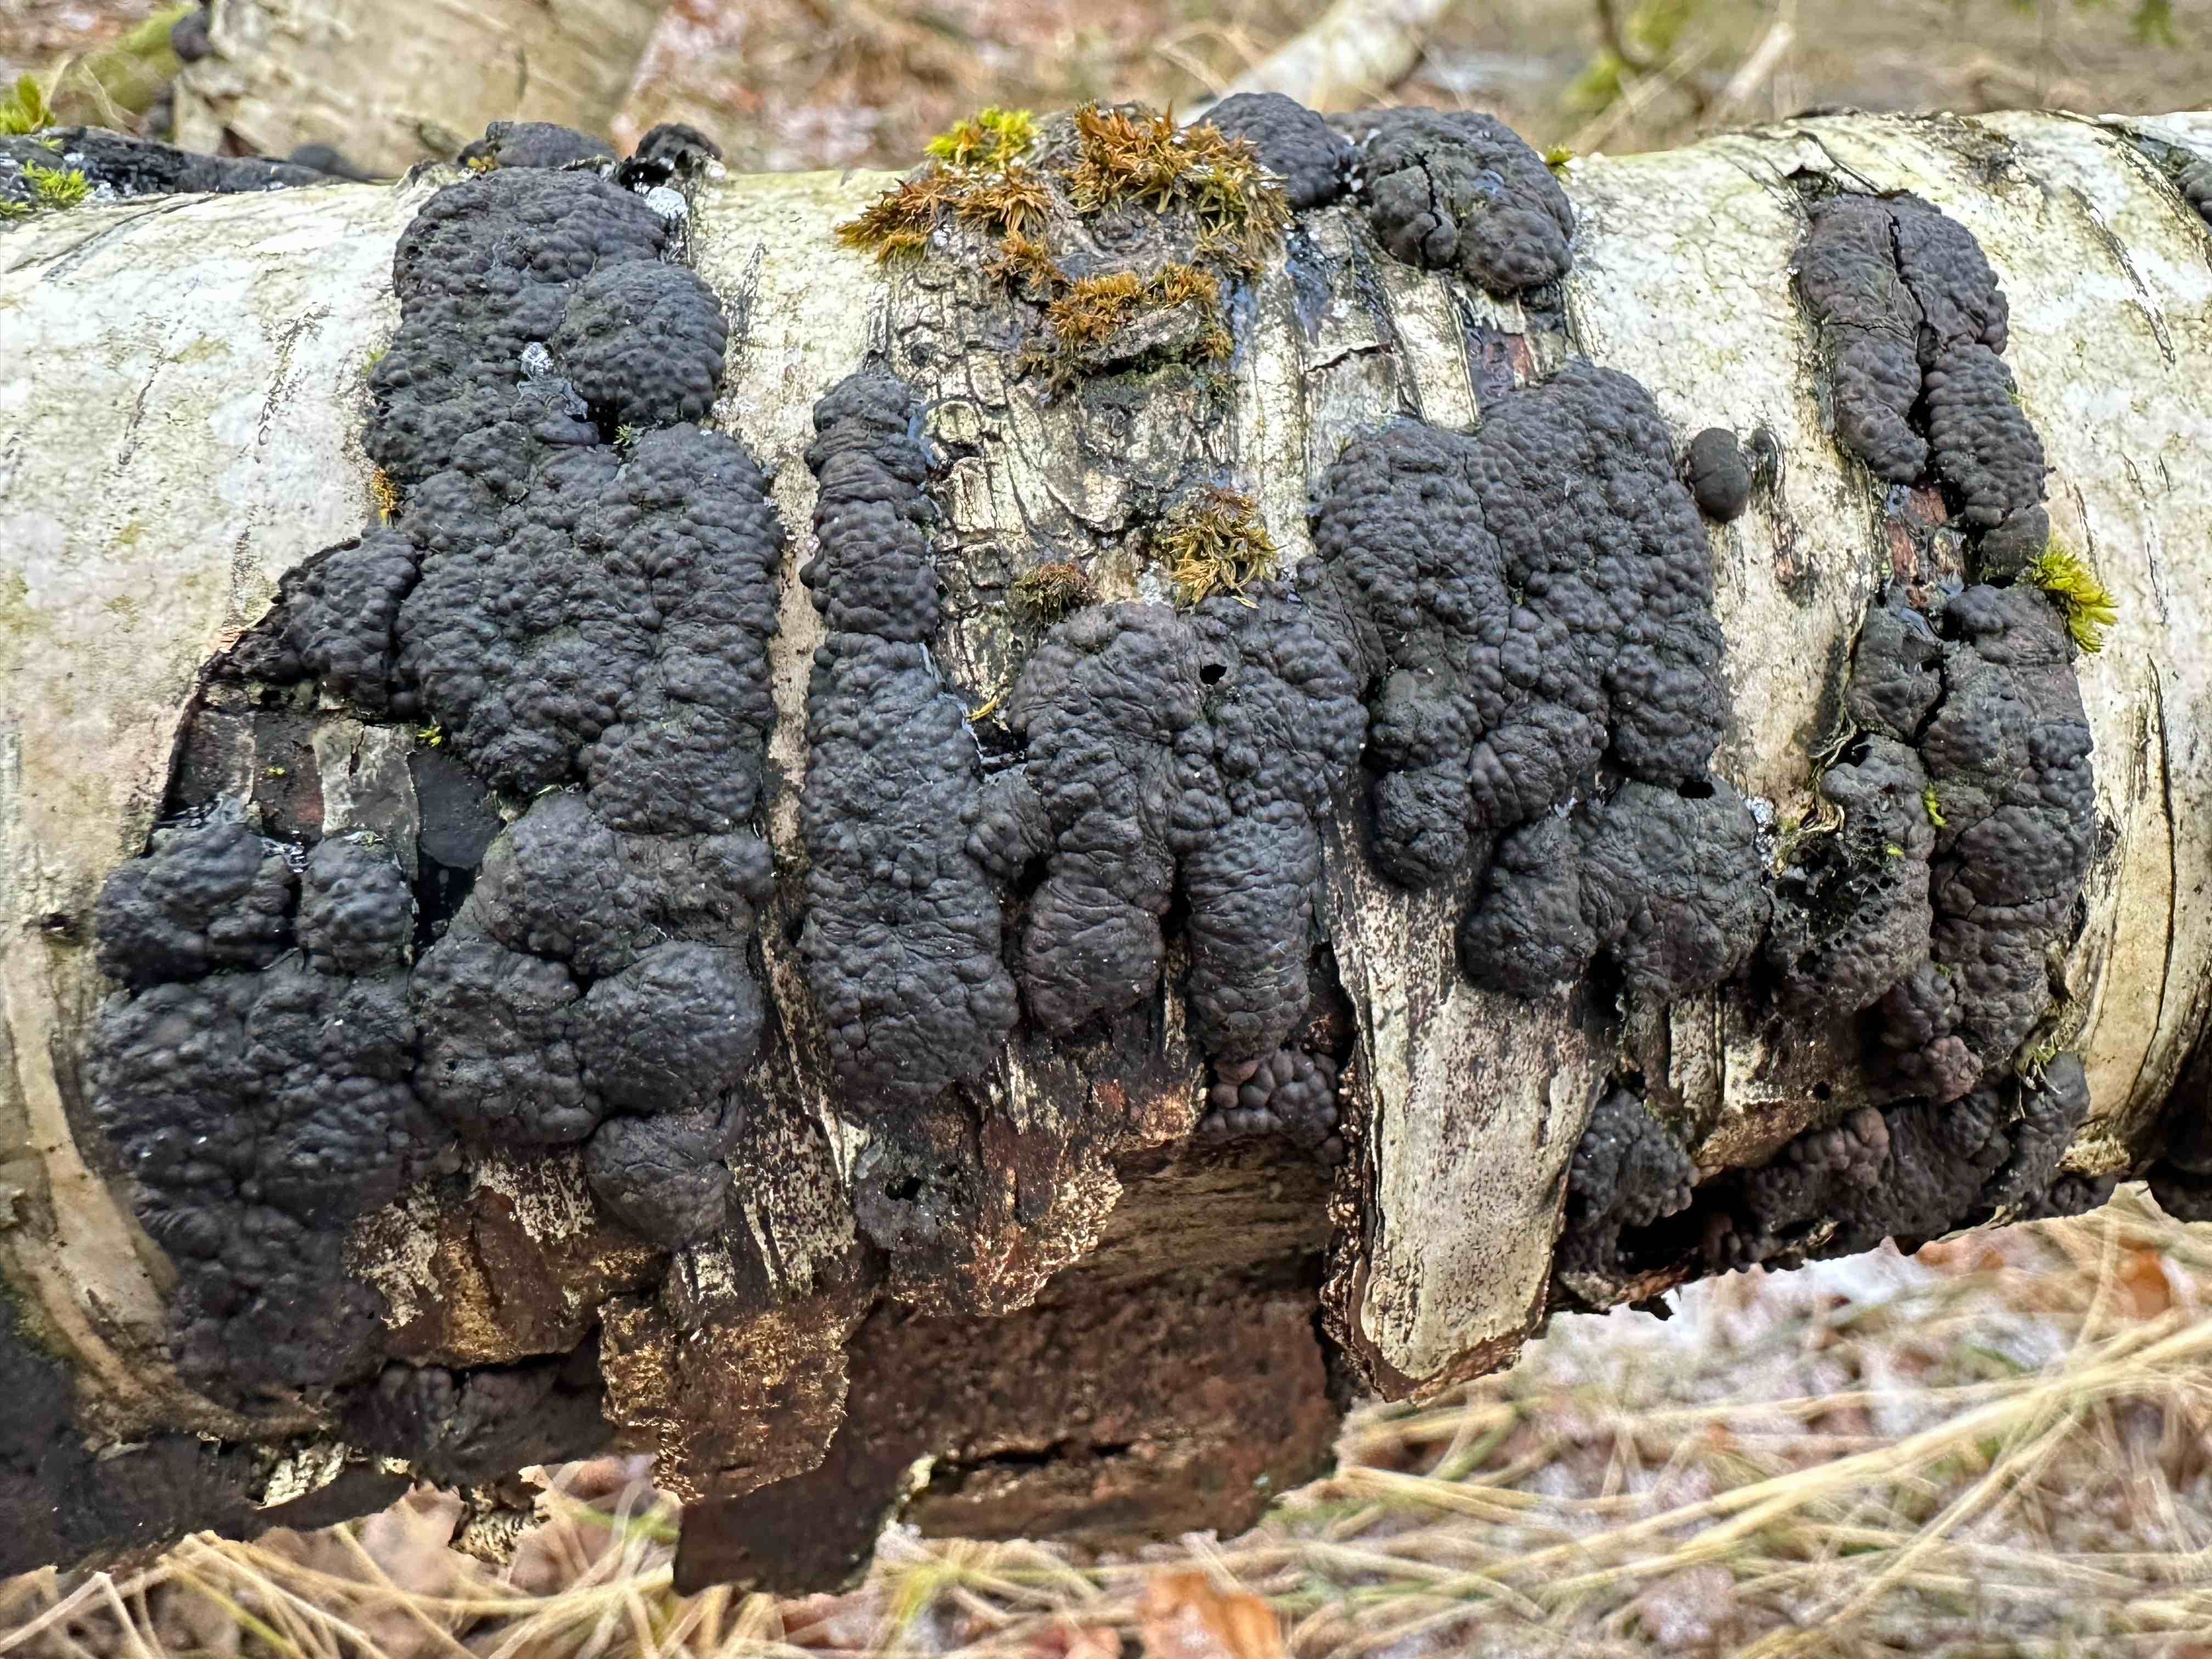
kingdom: Fungi
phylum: Ascomycota
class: Sordariomycetes
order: Xylariales
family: Hypoxylaceae
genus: Jackrogersella
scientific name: Jackrogersella multiformis
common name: foranderlig kulbær
